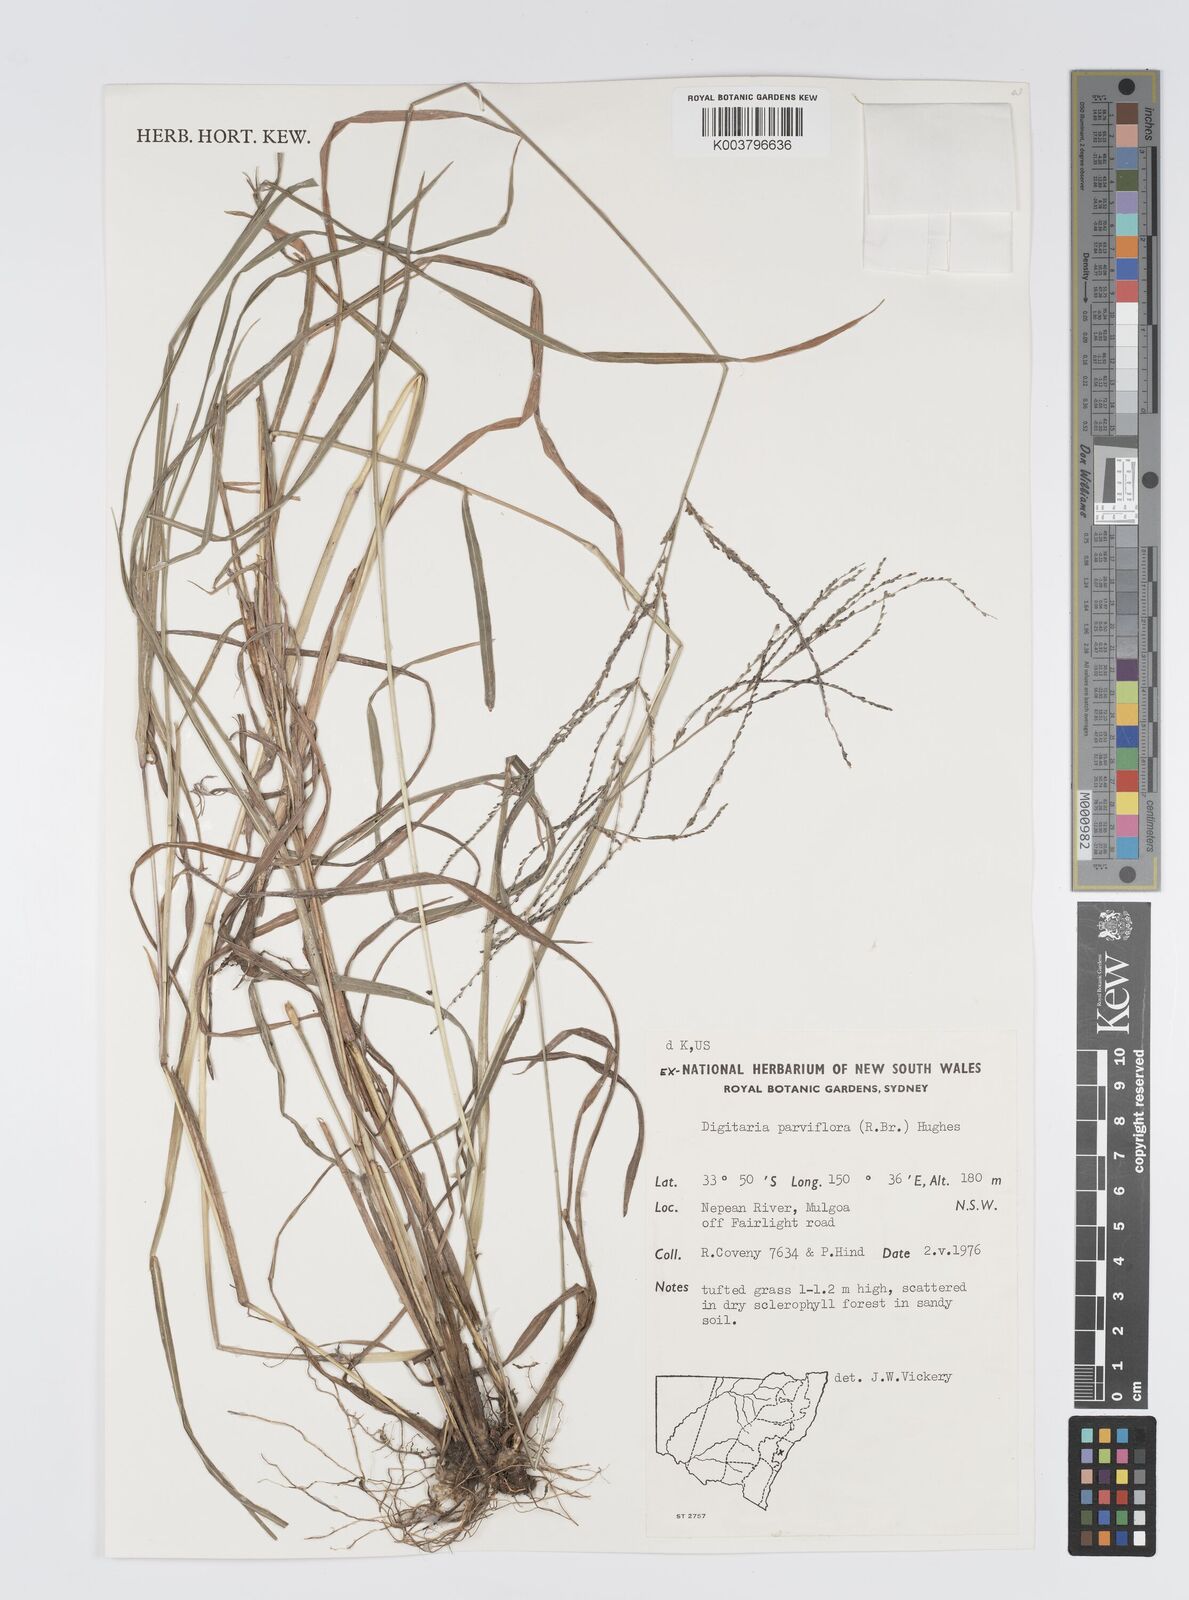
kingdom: Plantae
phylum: Tracheophyta
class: Liliopsida
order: Poales
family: Poaceae
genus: Digitaria
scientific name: Digitaria parviflora
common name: Small-flower finger grass
